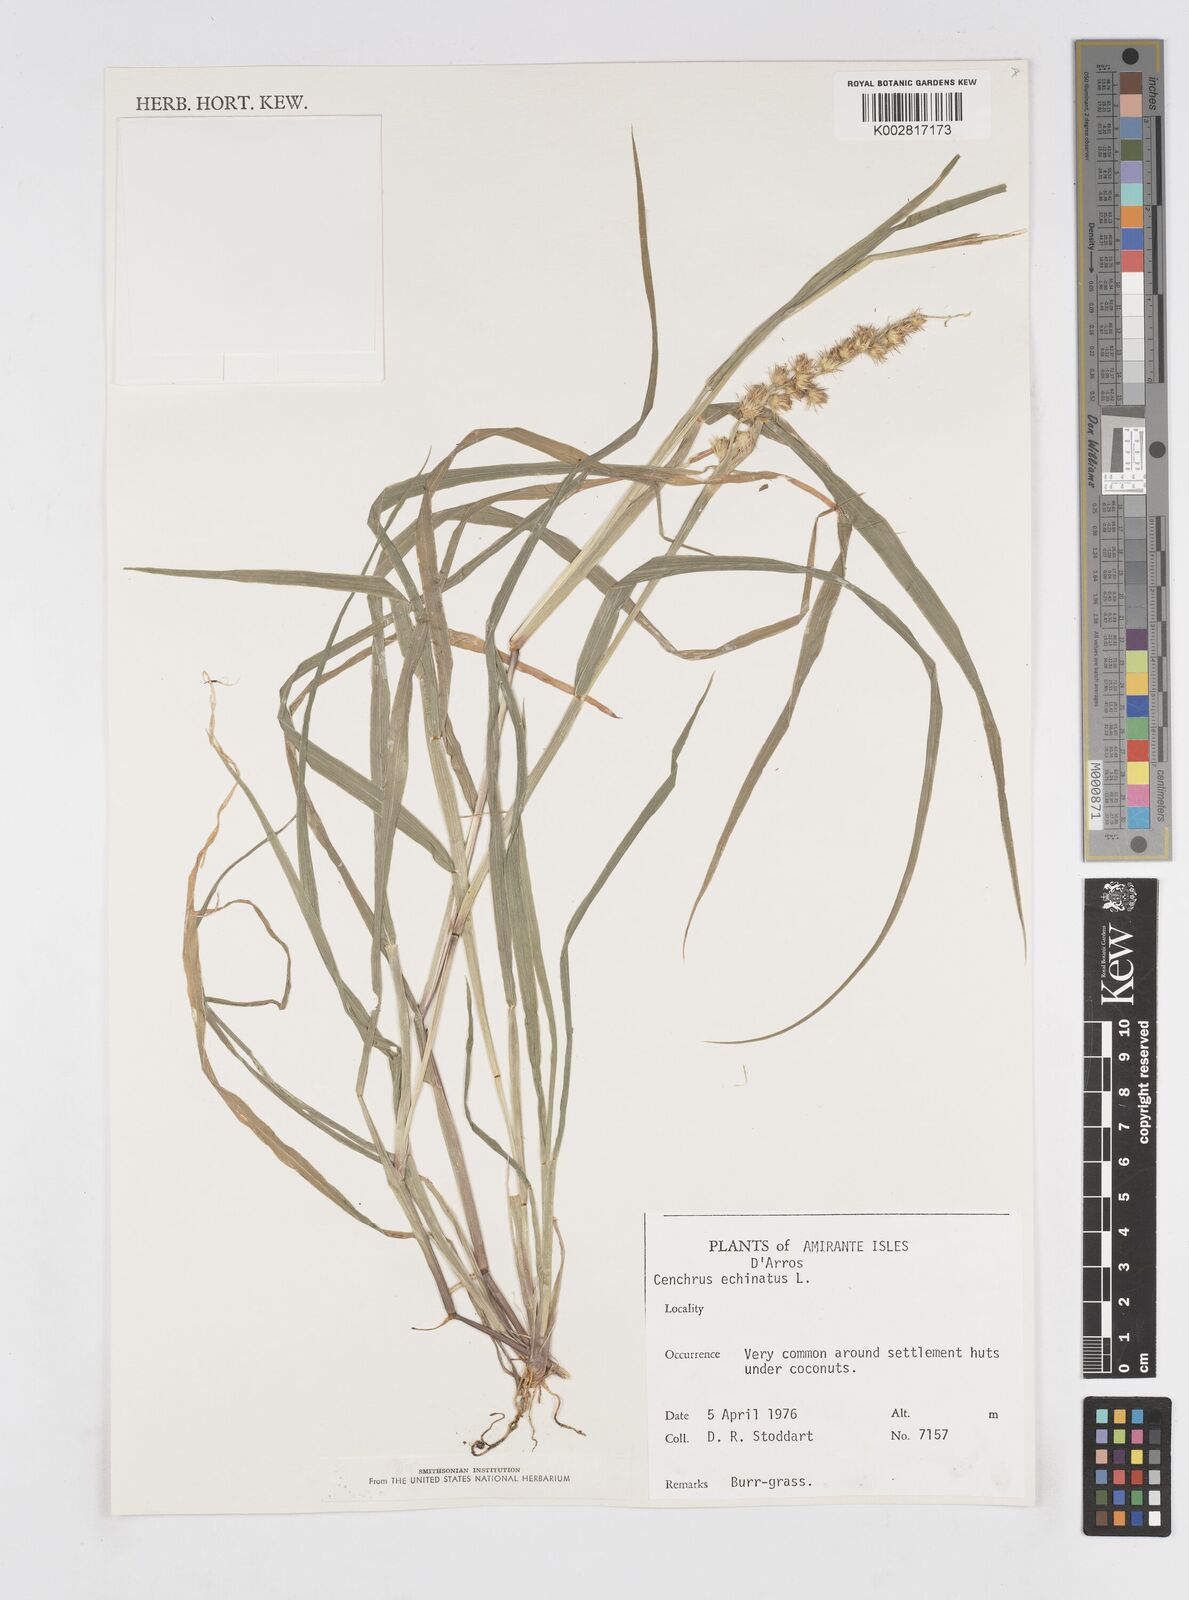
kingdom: Plantae
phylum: Tracheophyta
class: Liliopsida
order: Poales
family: Poaceae
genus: Cenchrus
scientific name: Cenchrus echinatus
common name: Southern sandbur
